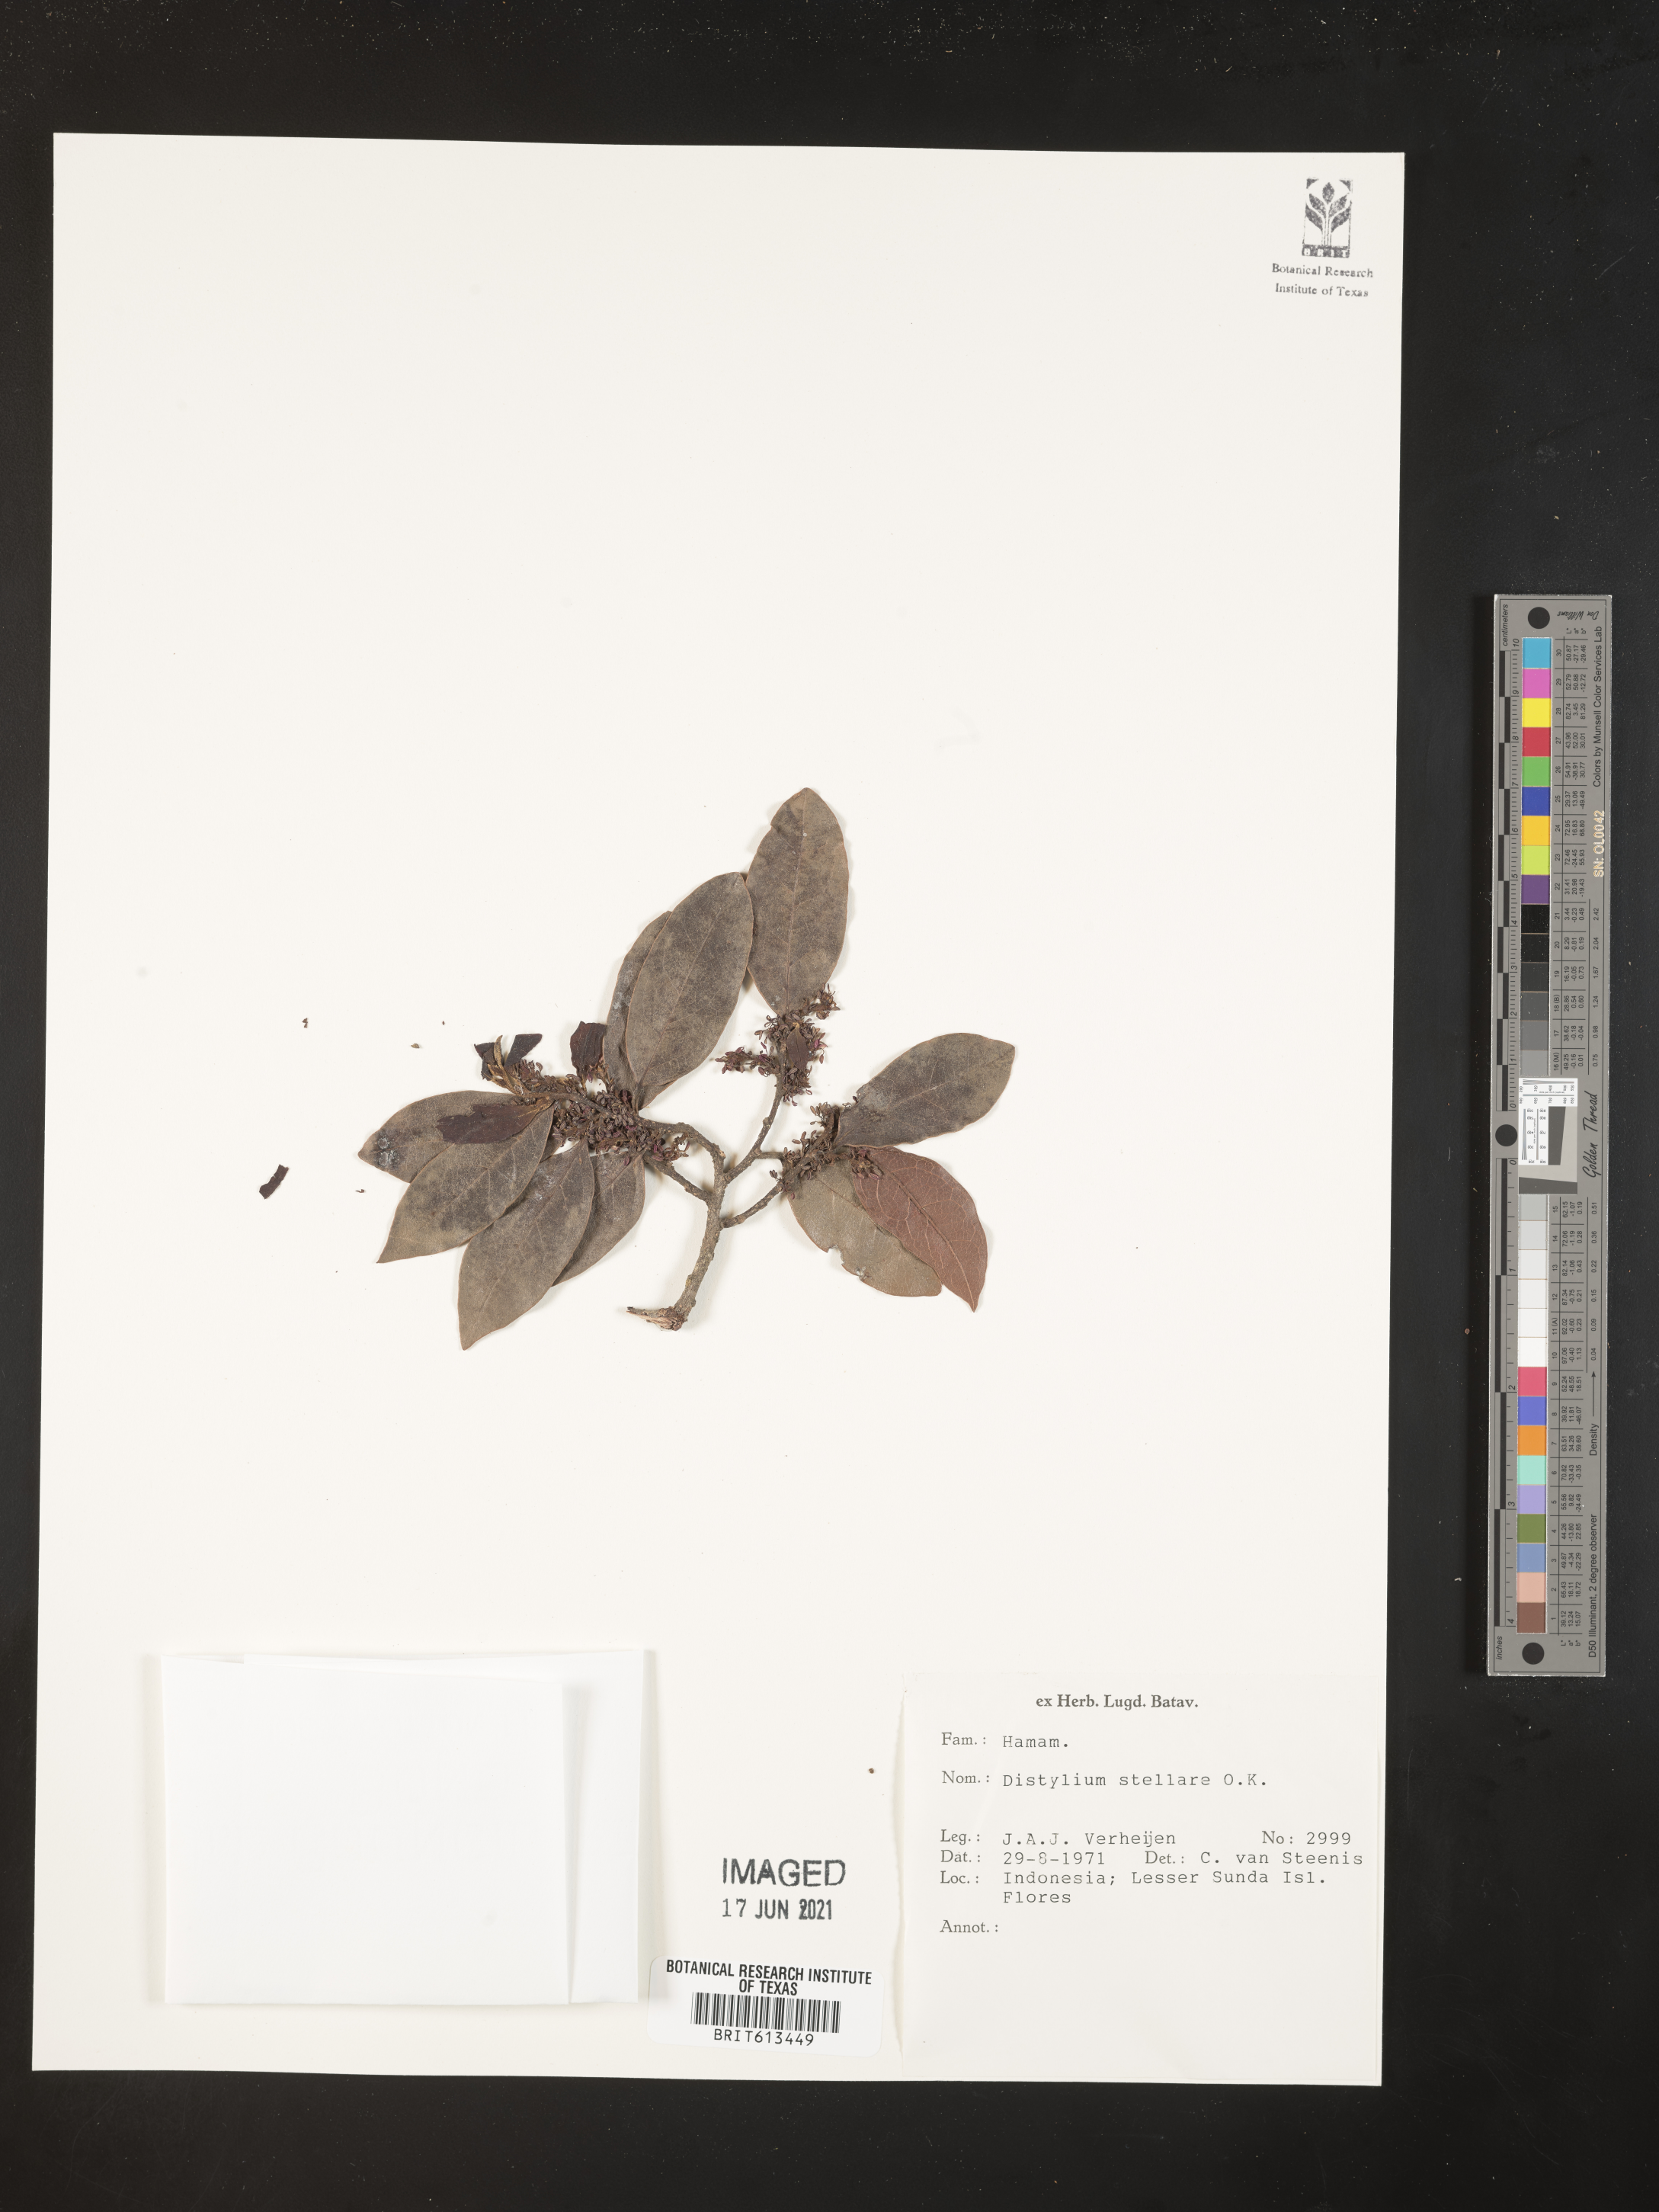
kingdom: Plantae
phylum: Tracheophyta
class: Magnoliopsida
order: Saxifragales
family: Hamamelidaceae
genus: Distylium
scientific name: Distylium stellare
